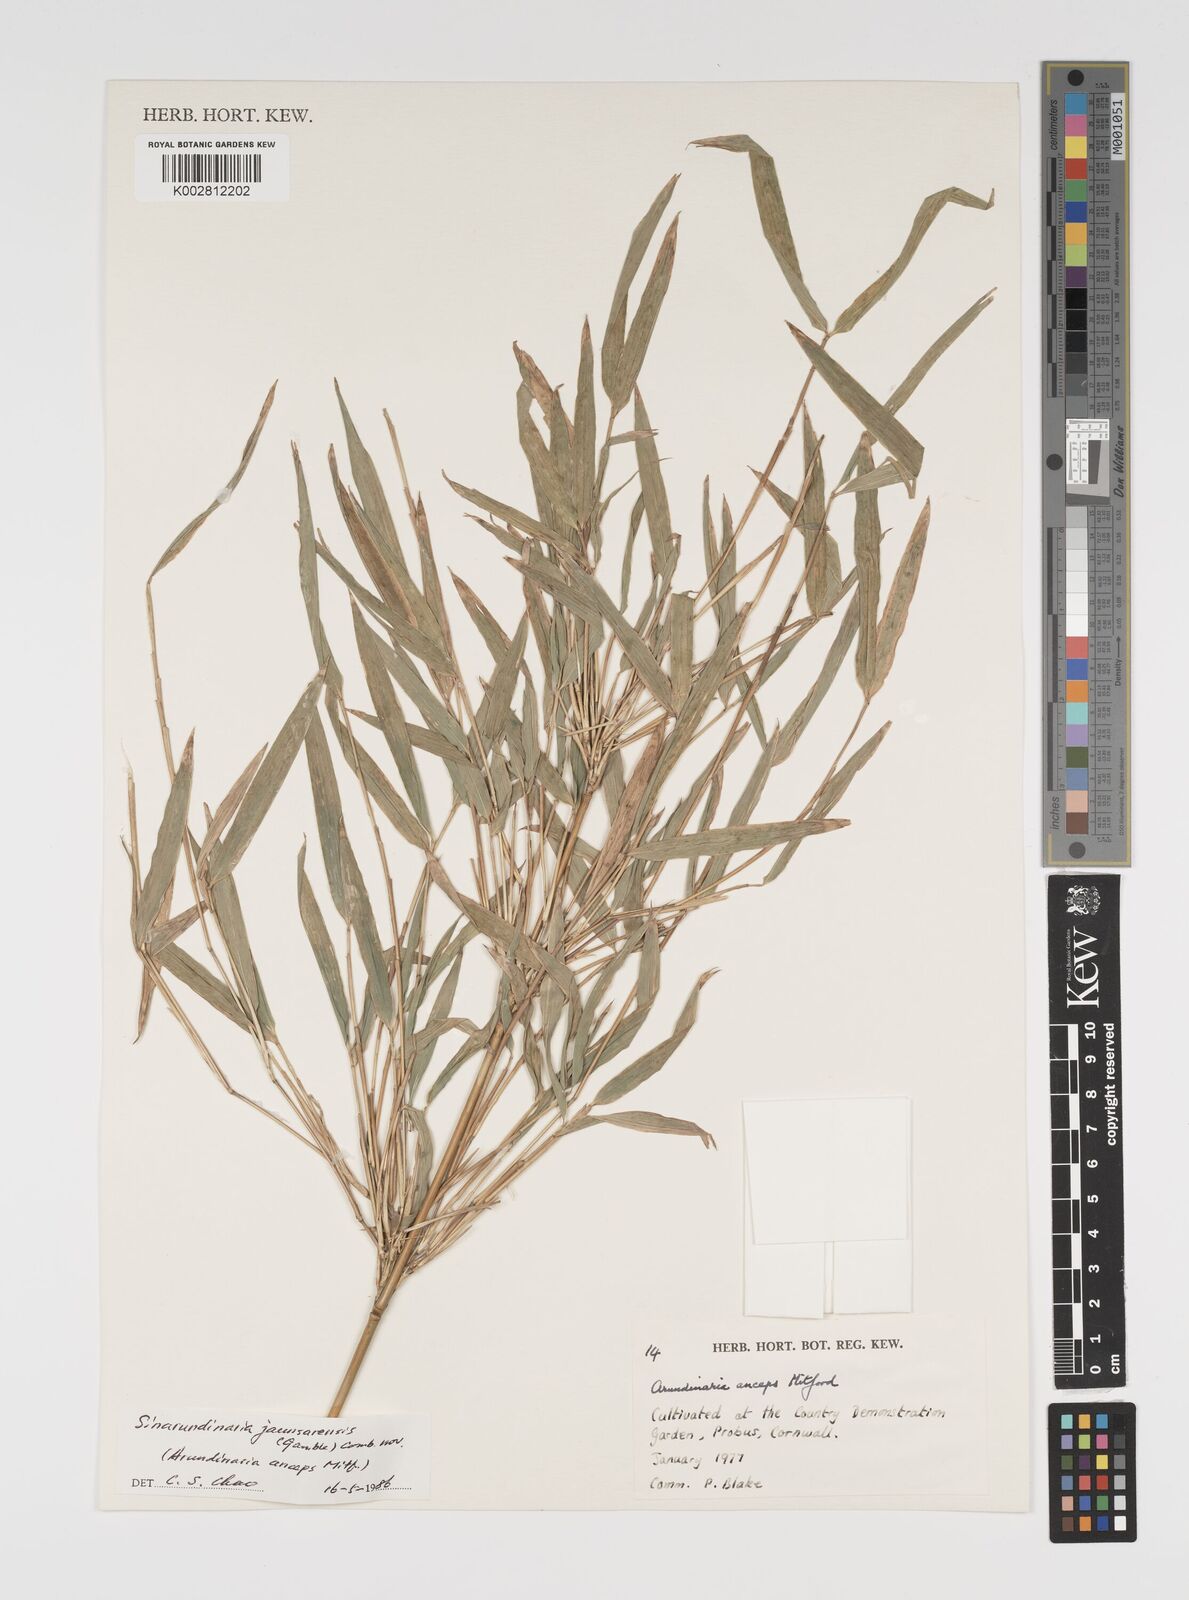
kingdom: Plantae
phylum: Tracheophyta
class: Liliopsida
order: Poales
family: Poaceae
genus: Yushania
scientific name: Yushania anceps
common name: Indian fountain-bamboo
